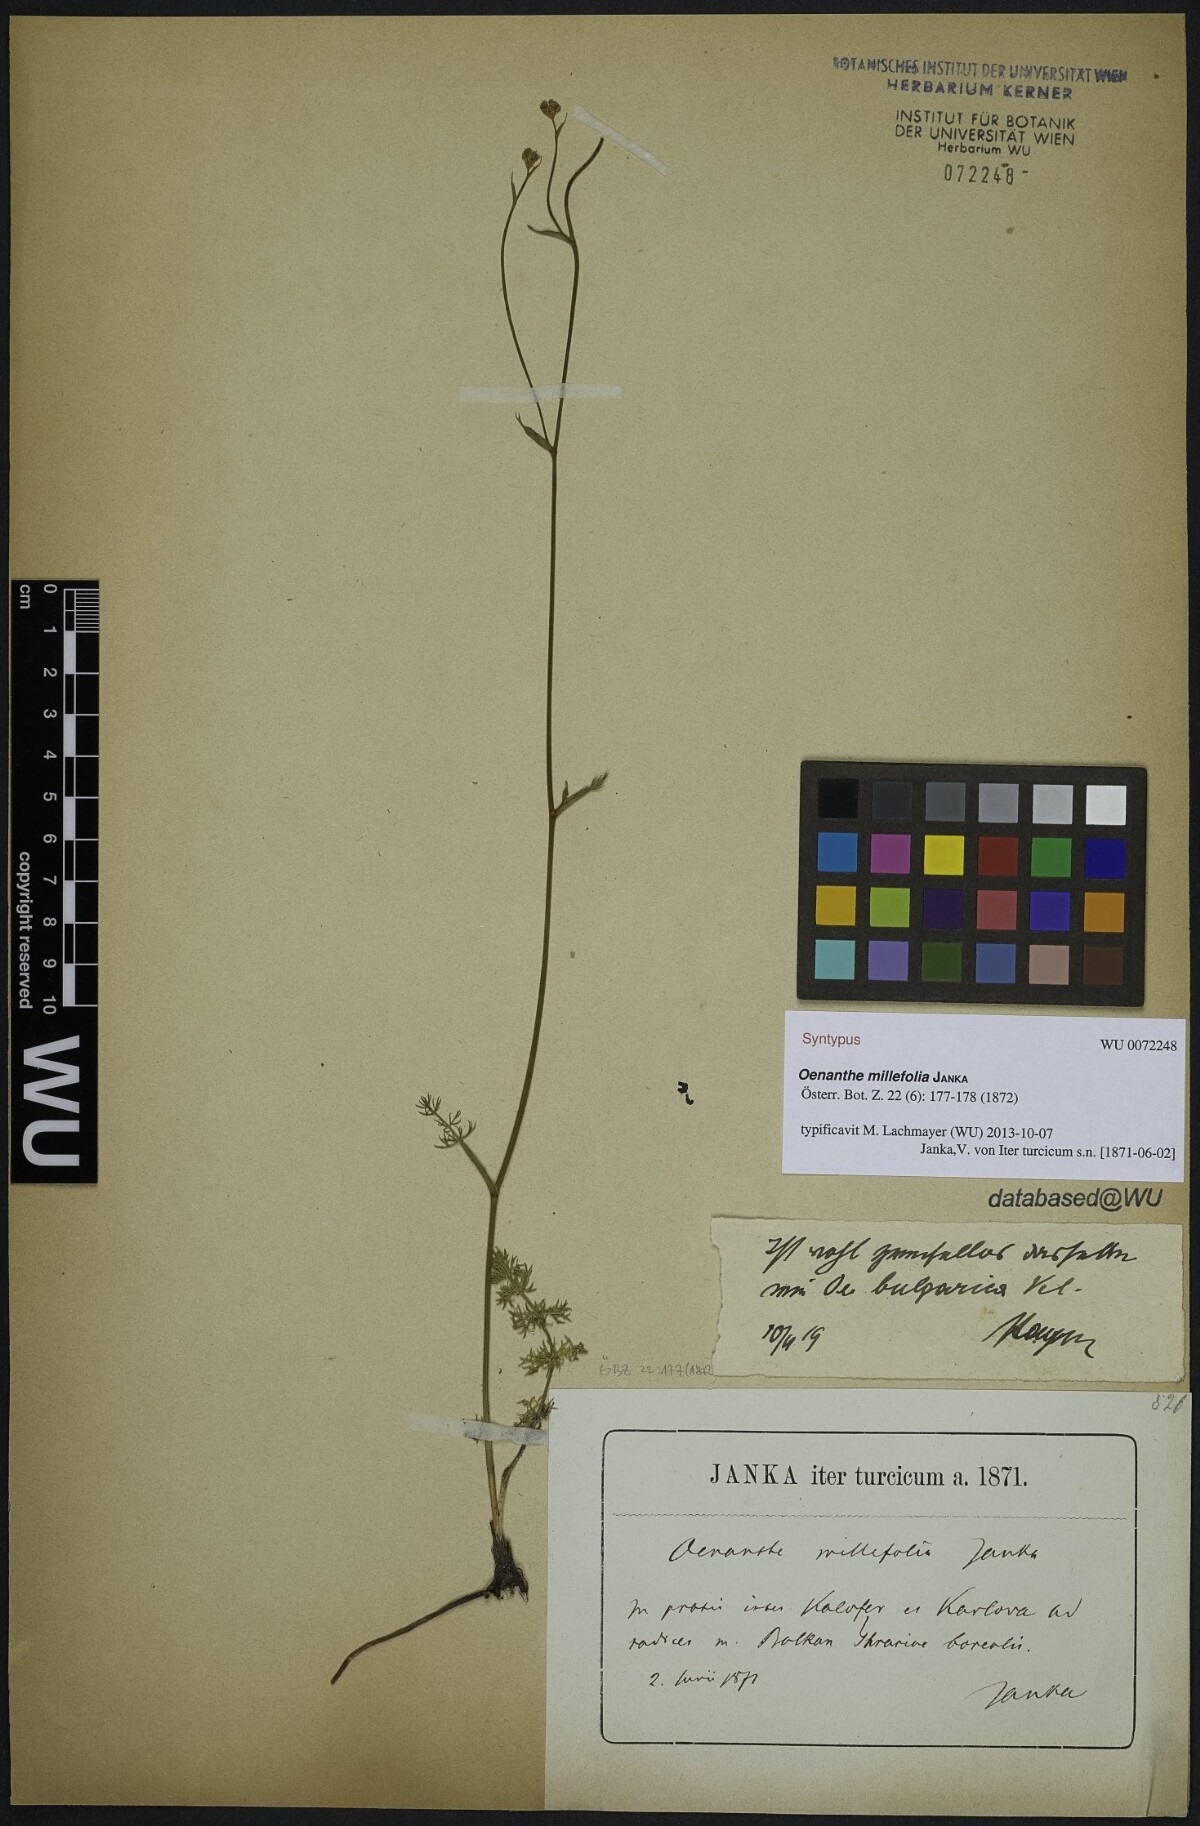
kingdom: Plantae
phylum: Tracheophyta
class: Magnoliopsida
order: Apiales
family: Apiaceae
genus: Oenanthe
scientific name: Oenanthe millefolia
